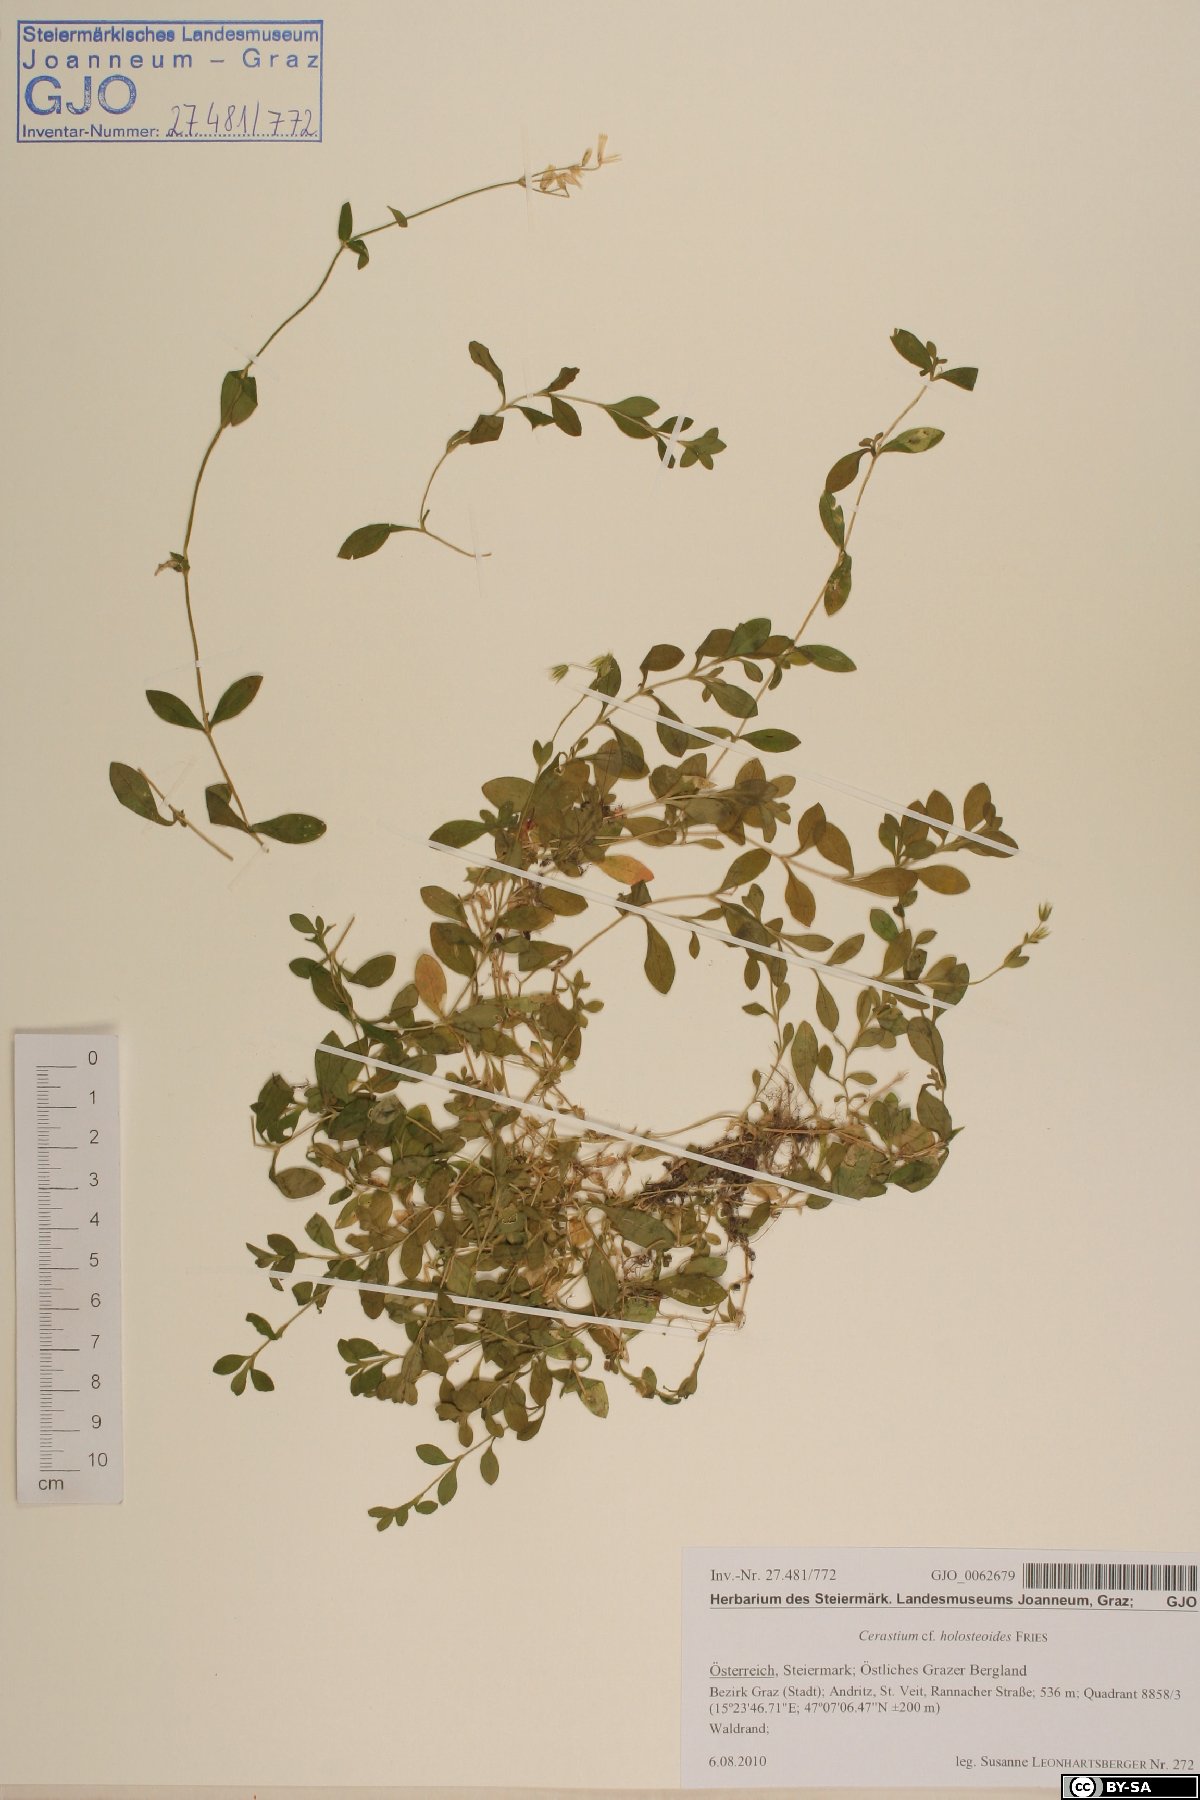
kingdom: Plantae
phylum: Tracheophyta
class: Magnoliopsida
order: Caryophyllales
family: Caryophyllaceae
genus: Cerastium
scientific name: Cerastium holosteoides
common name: Big chickweed
